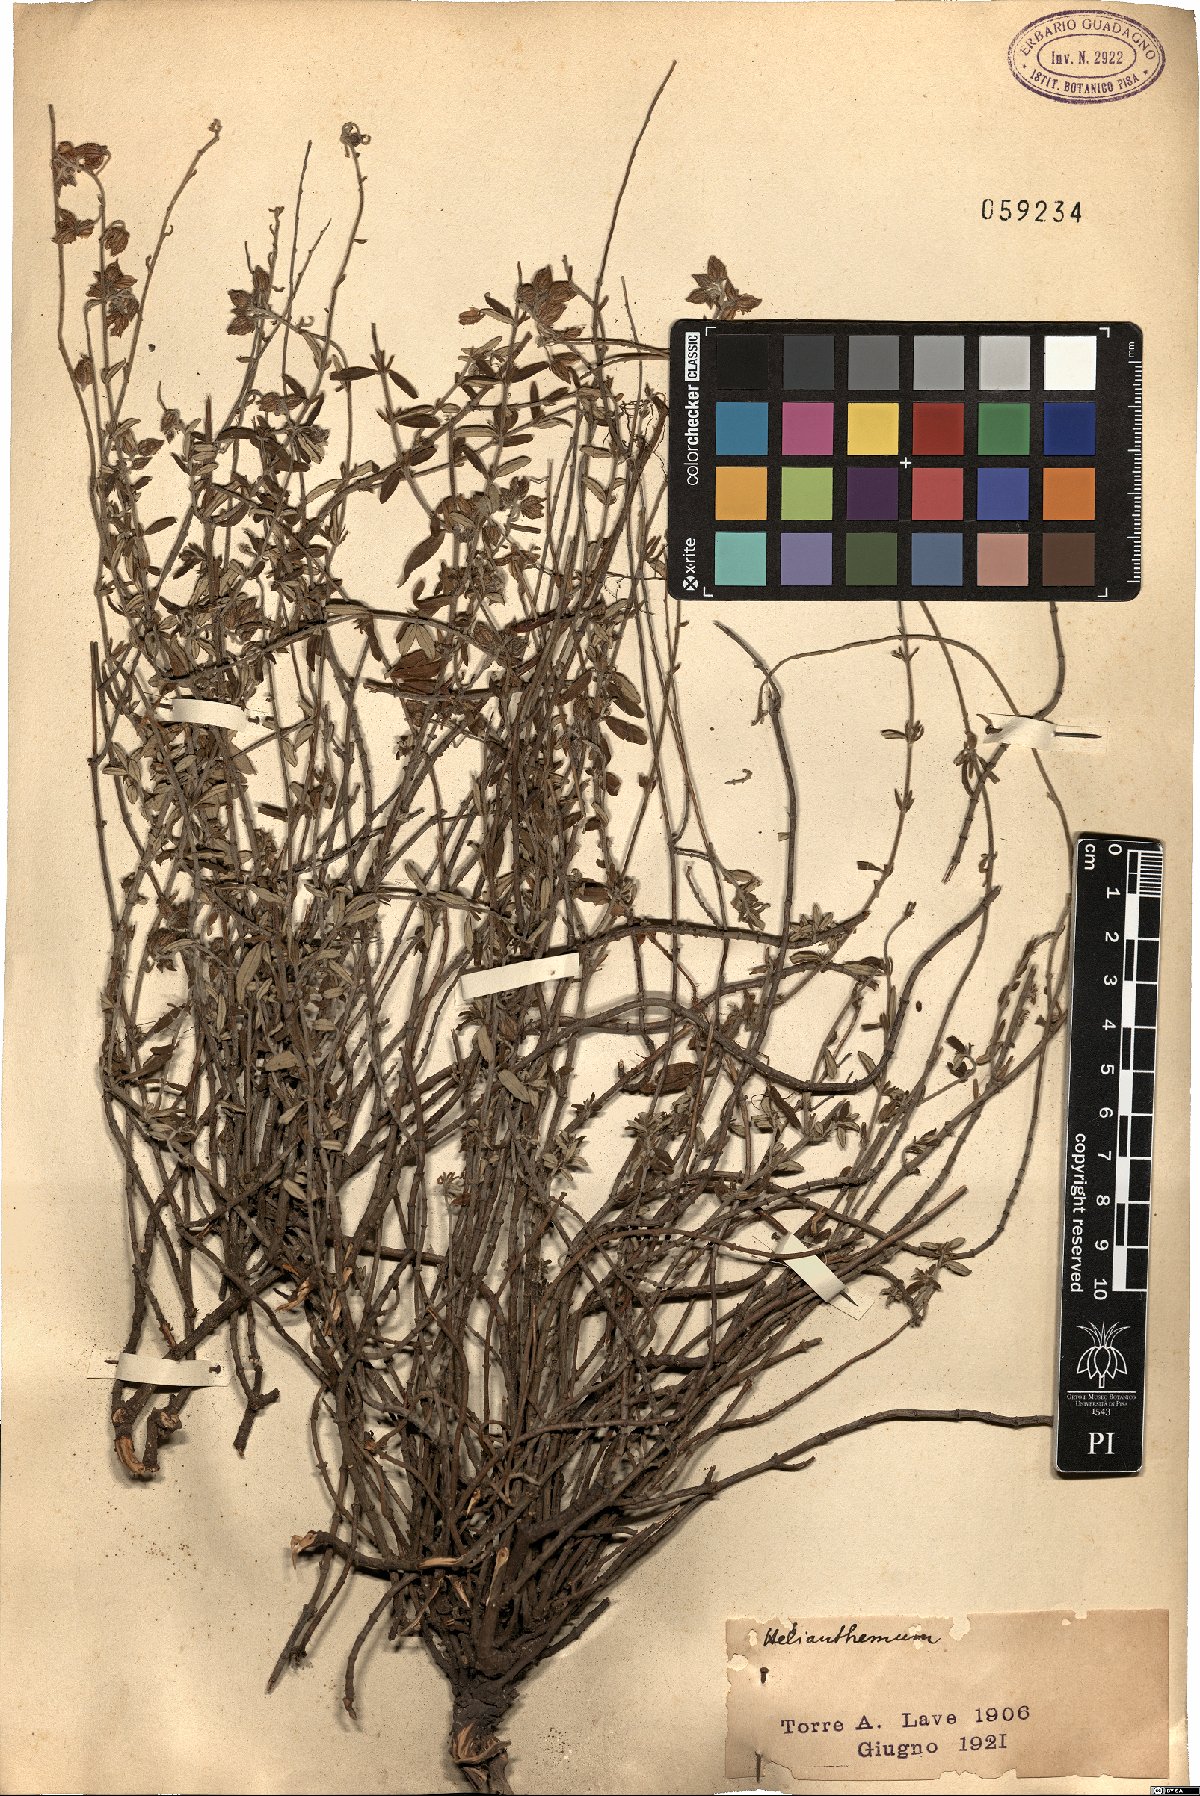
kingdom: Plantae
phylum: Tracheophyta
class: Magnoliopsida
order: Malvales
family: Cistaceae
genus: Helianthemum
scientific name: Helianthemum
